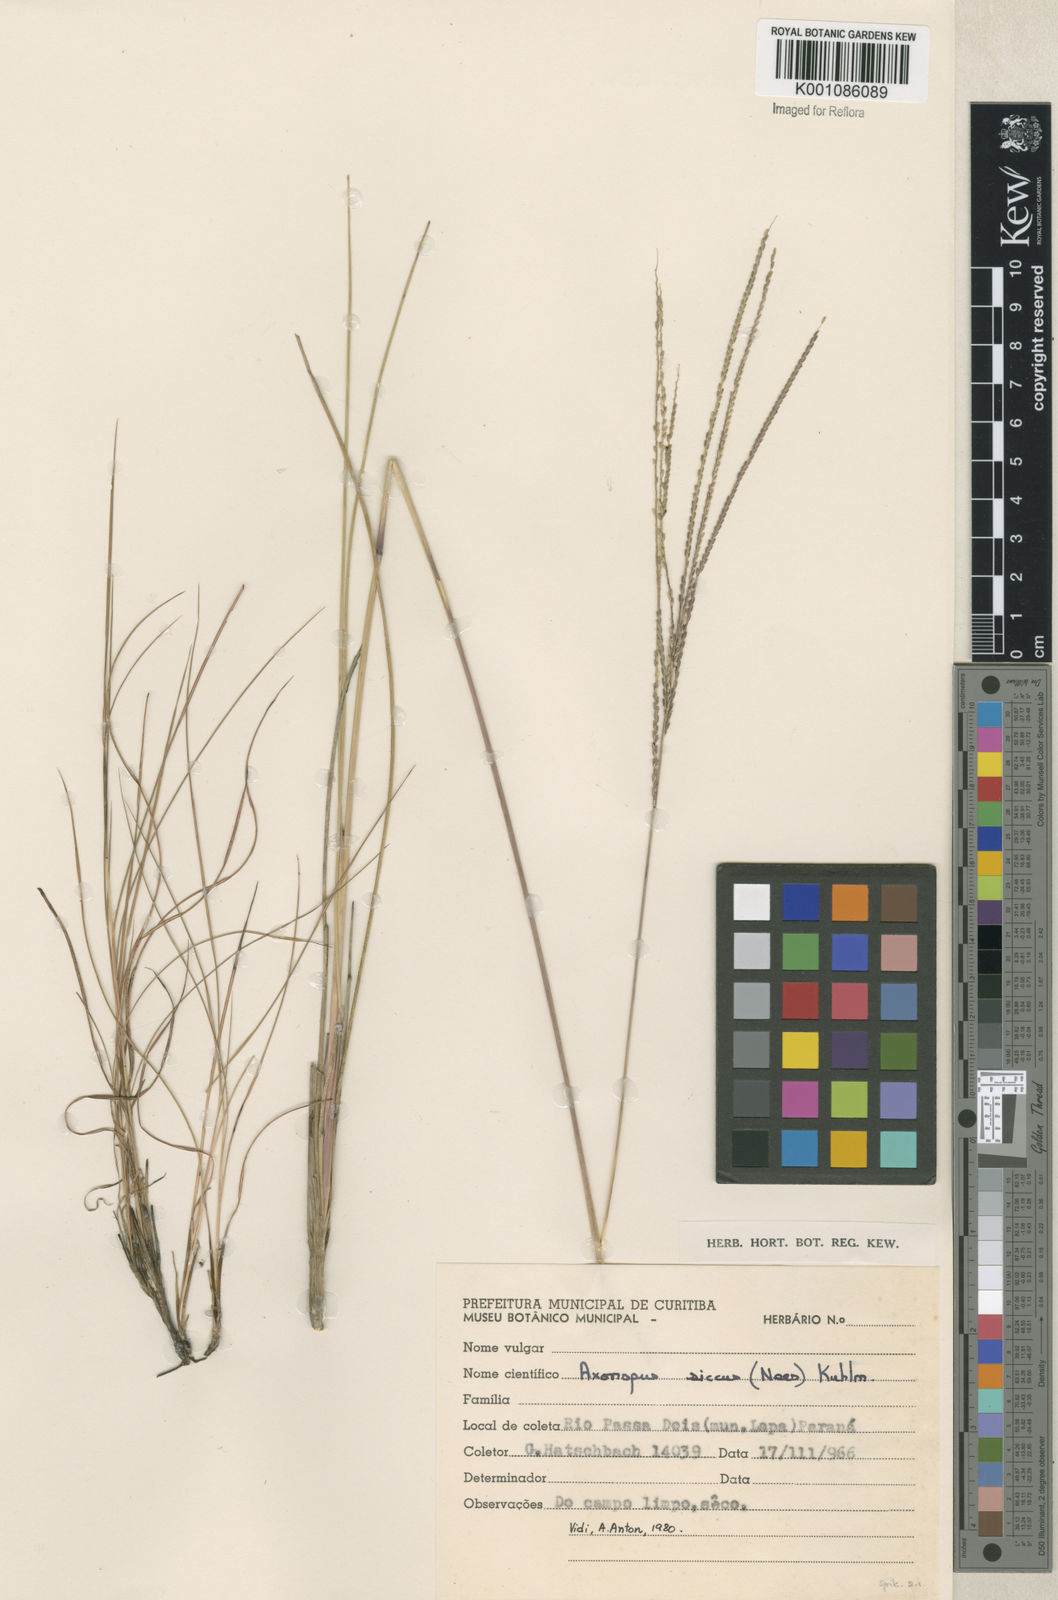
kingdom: Plantae
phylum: Tracheophyta
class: Liliopsida
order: Poales
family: Poaceae
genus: Axonopus
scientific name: Axonopus siccus
